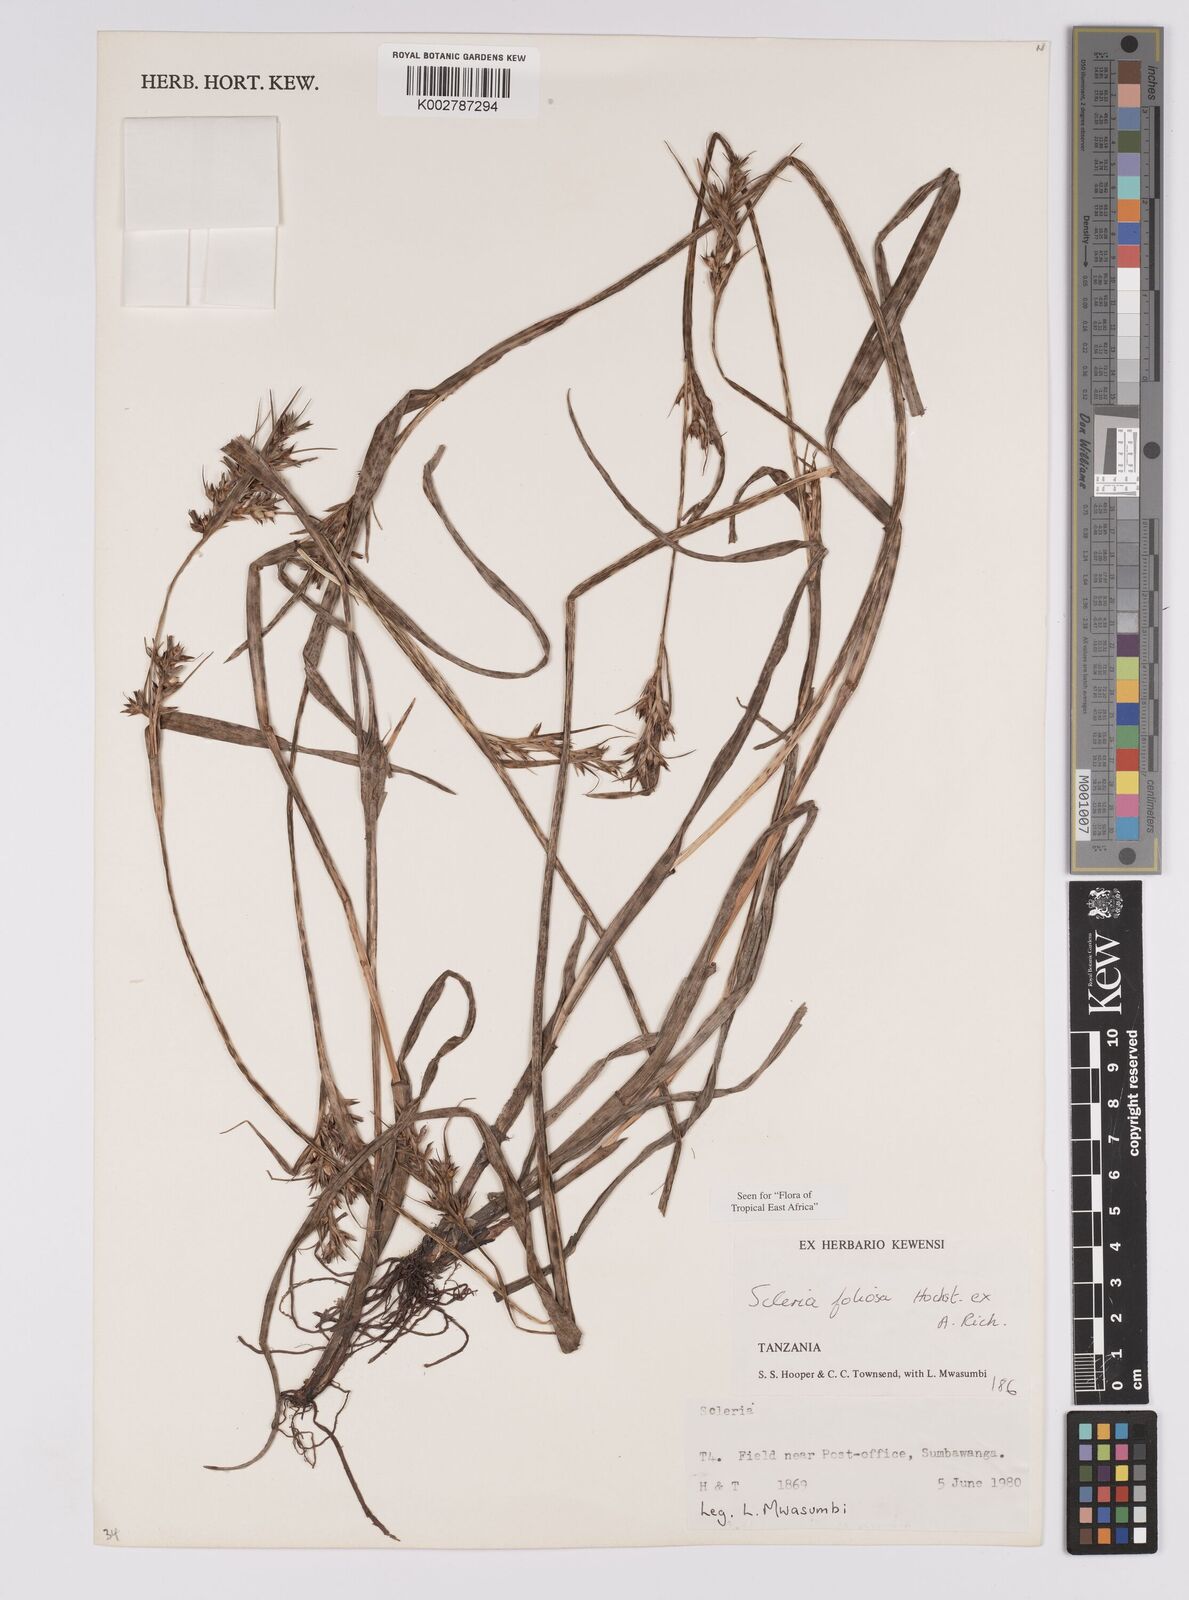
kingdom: Plantae
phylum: Tracheophyta
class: Liliopsida
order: Poales
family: Cyperaceae
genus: Scleria
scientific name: Scleria foliosa
